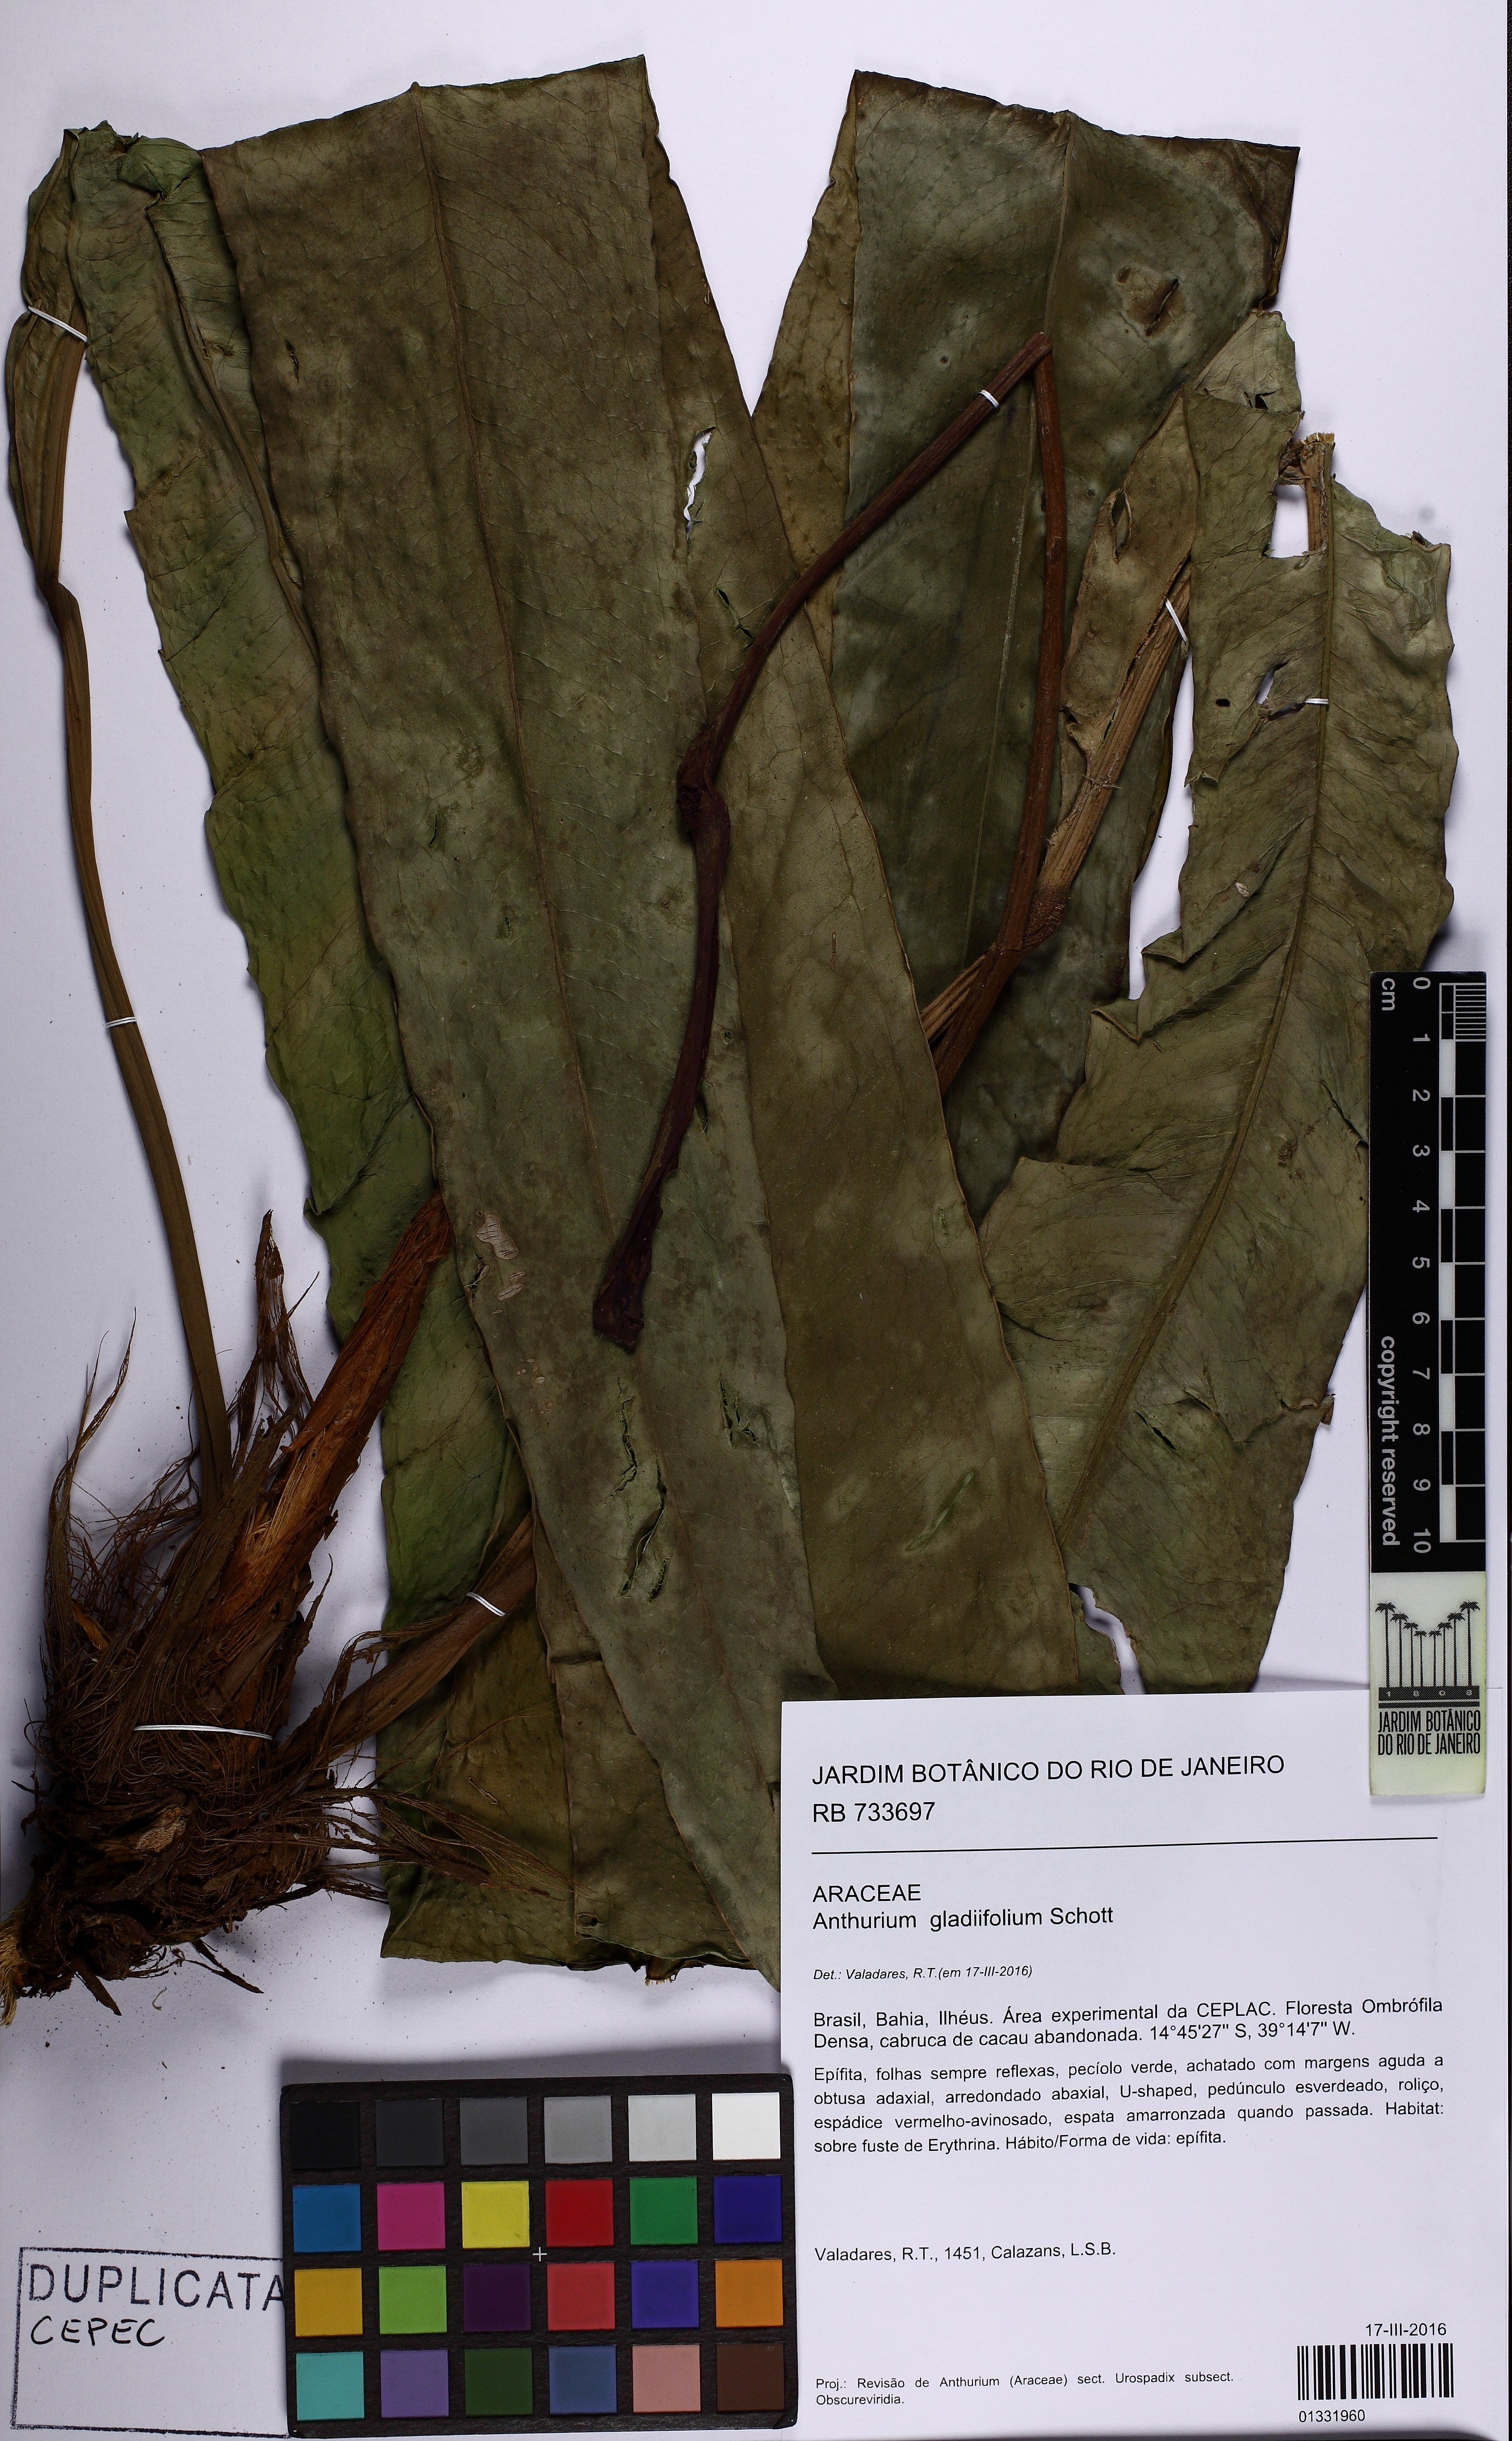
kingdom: Plantae
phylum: Tracheophyta
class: Liliopsida
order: Alismatales
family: Araceae
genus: Anthurium
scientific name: Anthurium gladiifolium
